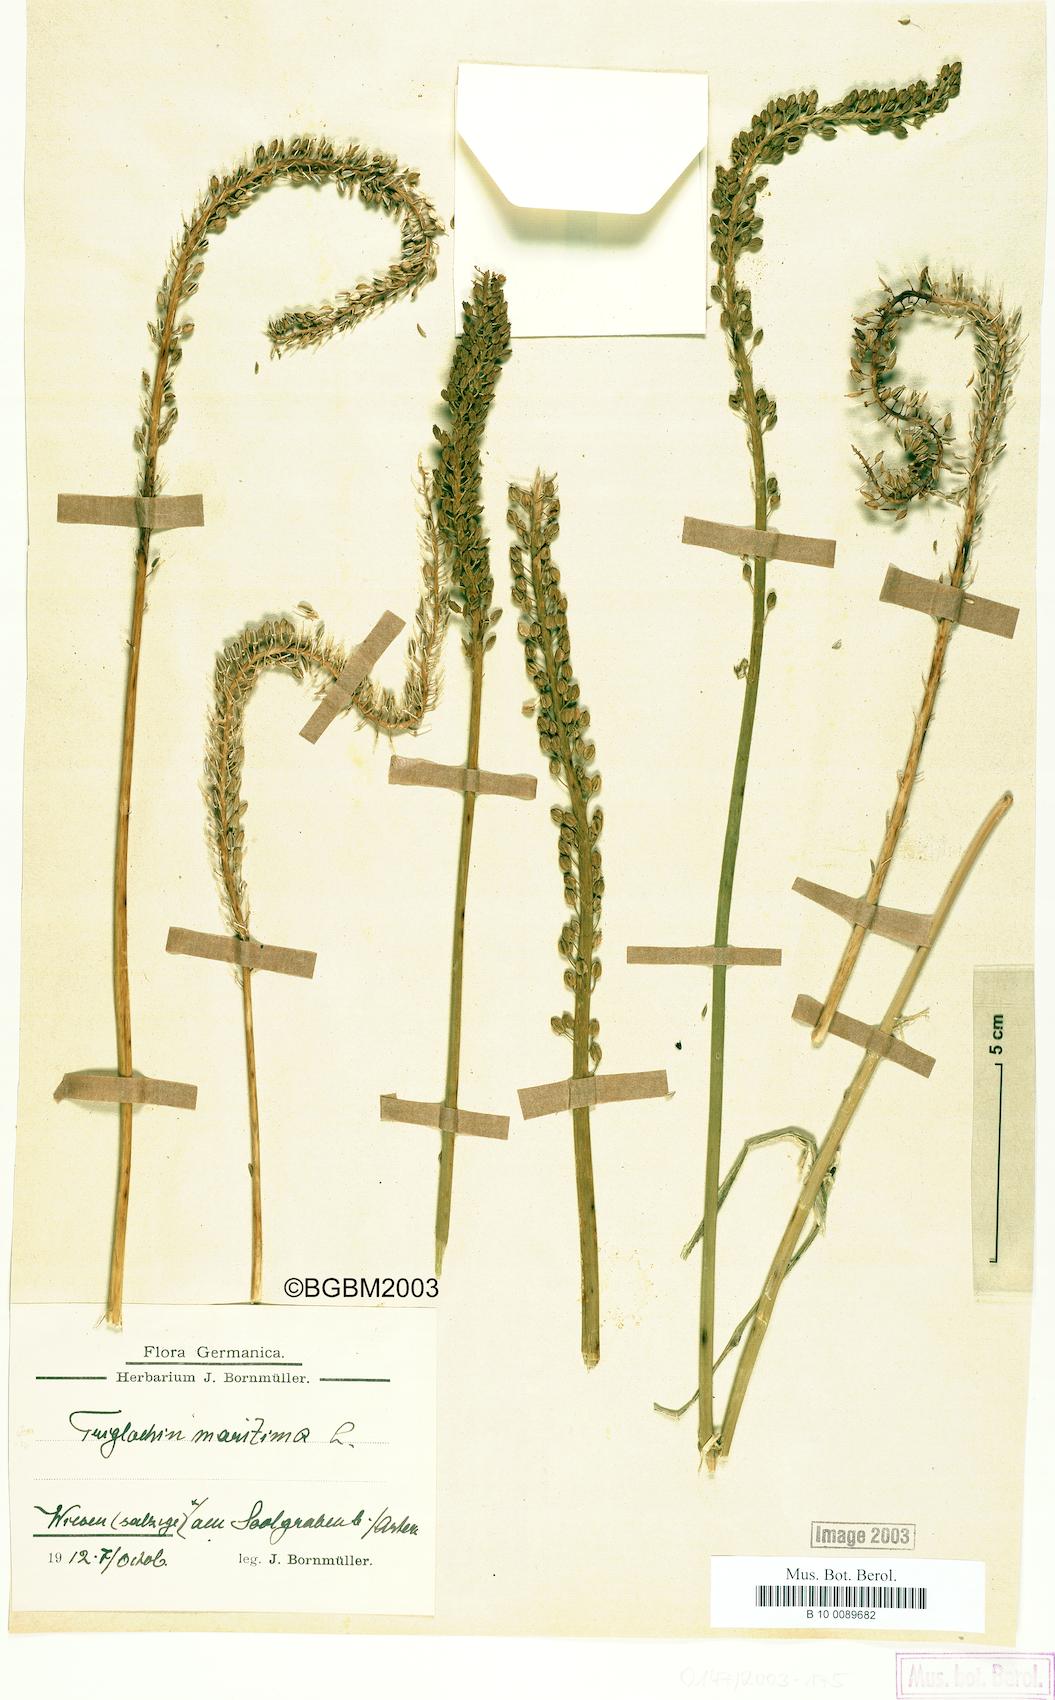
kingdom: Plantae
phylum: Tracheophyta
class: Liliopsida
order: Alismatales
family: Juncaginaceae
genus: Triglochin
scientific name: Triglochin maritima
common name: Sea arrowgrass
